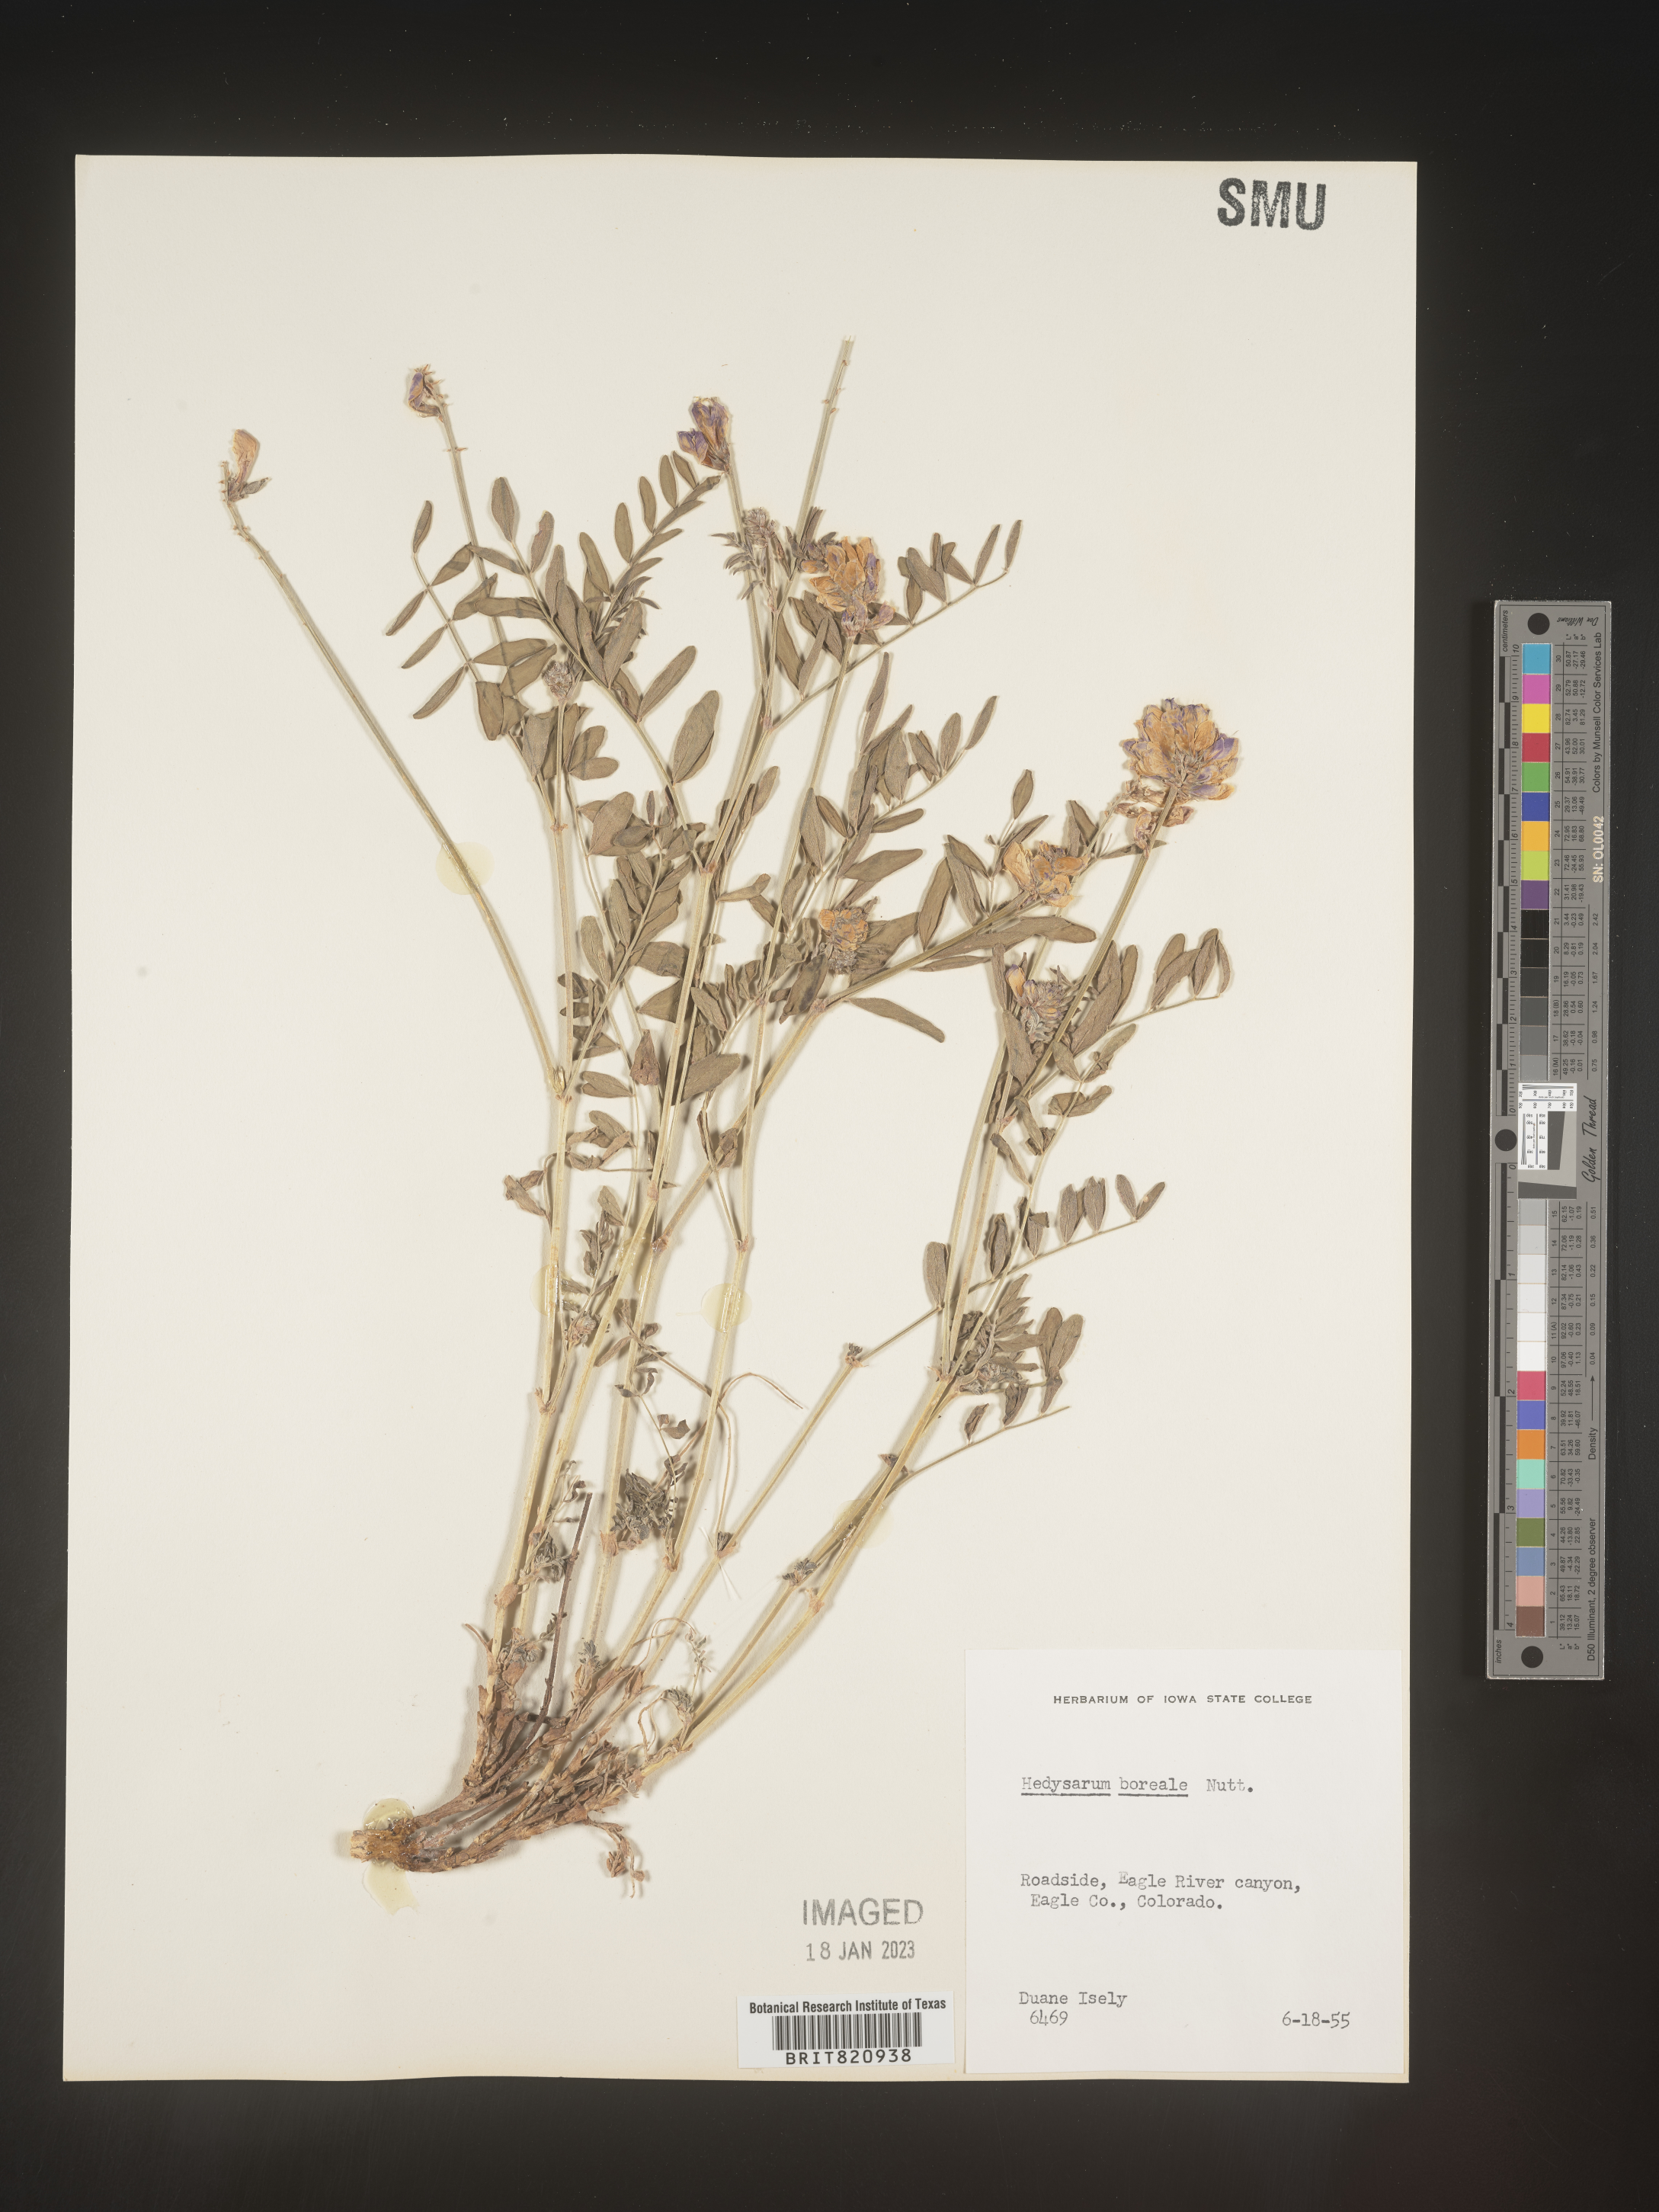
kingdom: Plantae
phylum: Tracheophyta
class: Magnoliopsida
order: Fabales
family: Fabaceae
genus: Hedysarum
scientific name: Hedysarum boreale
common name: Northern sweet-vetch
